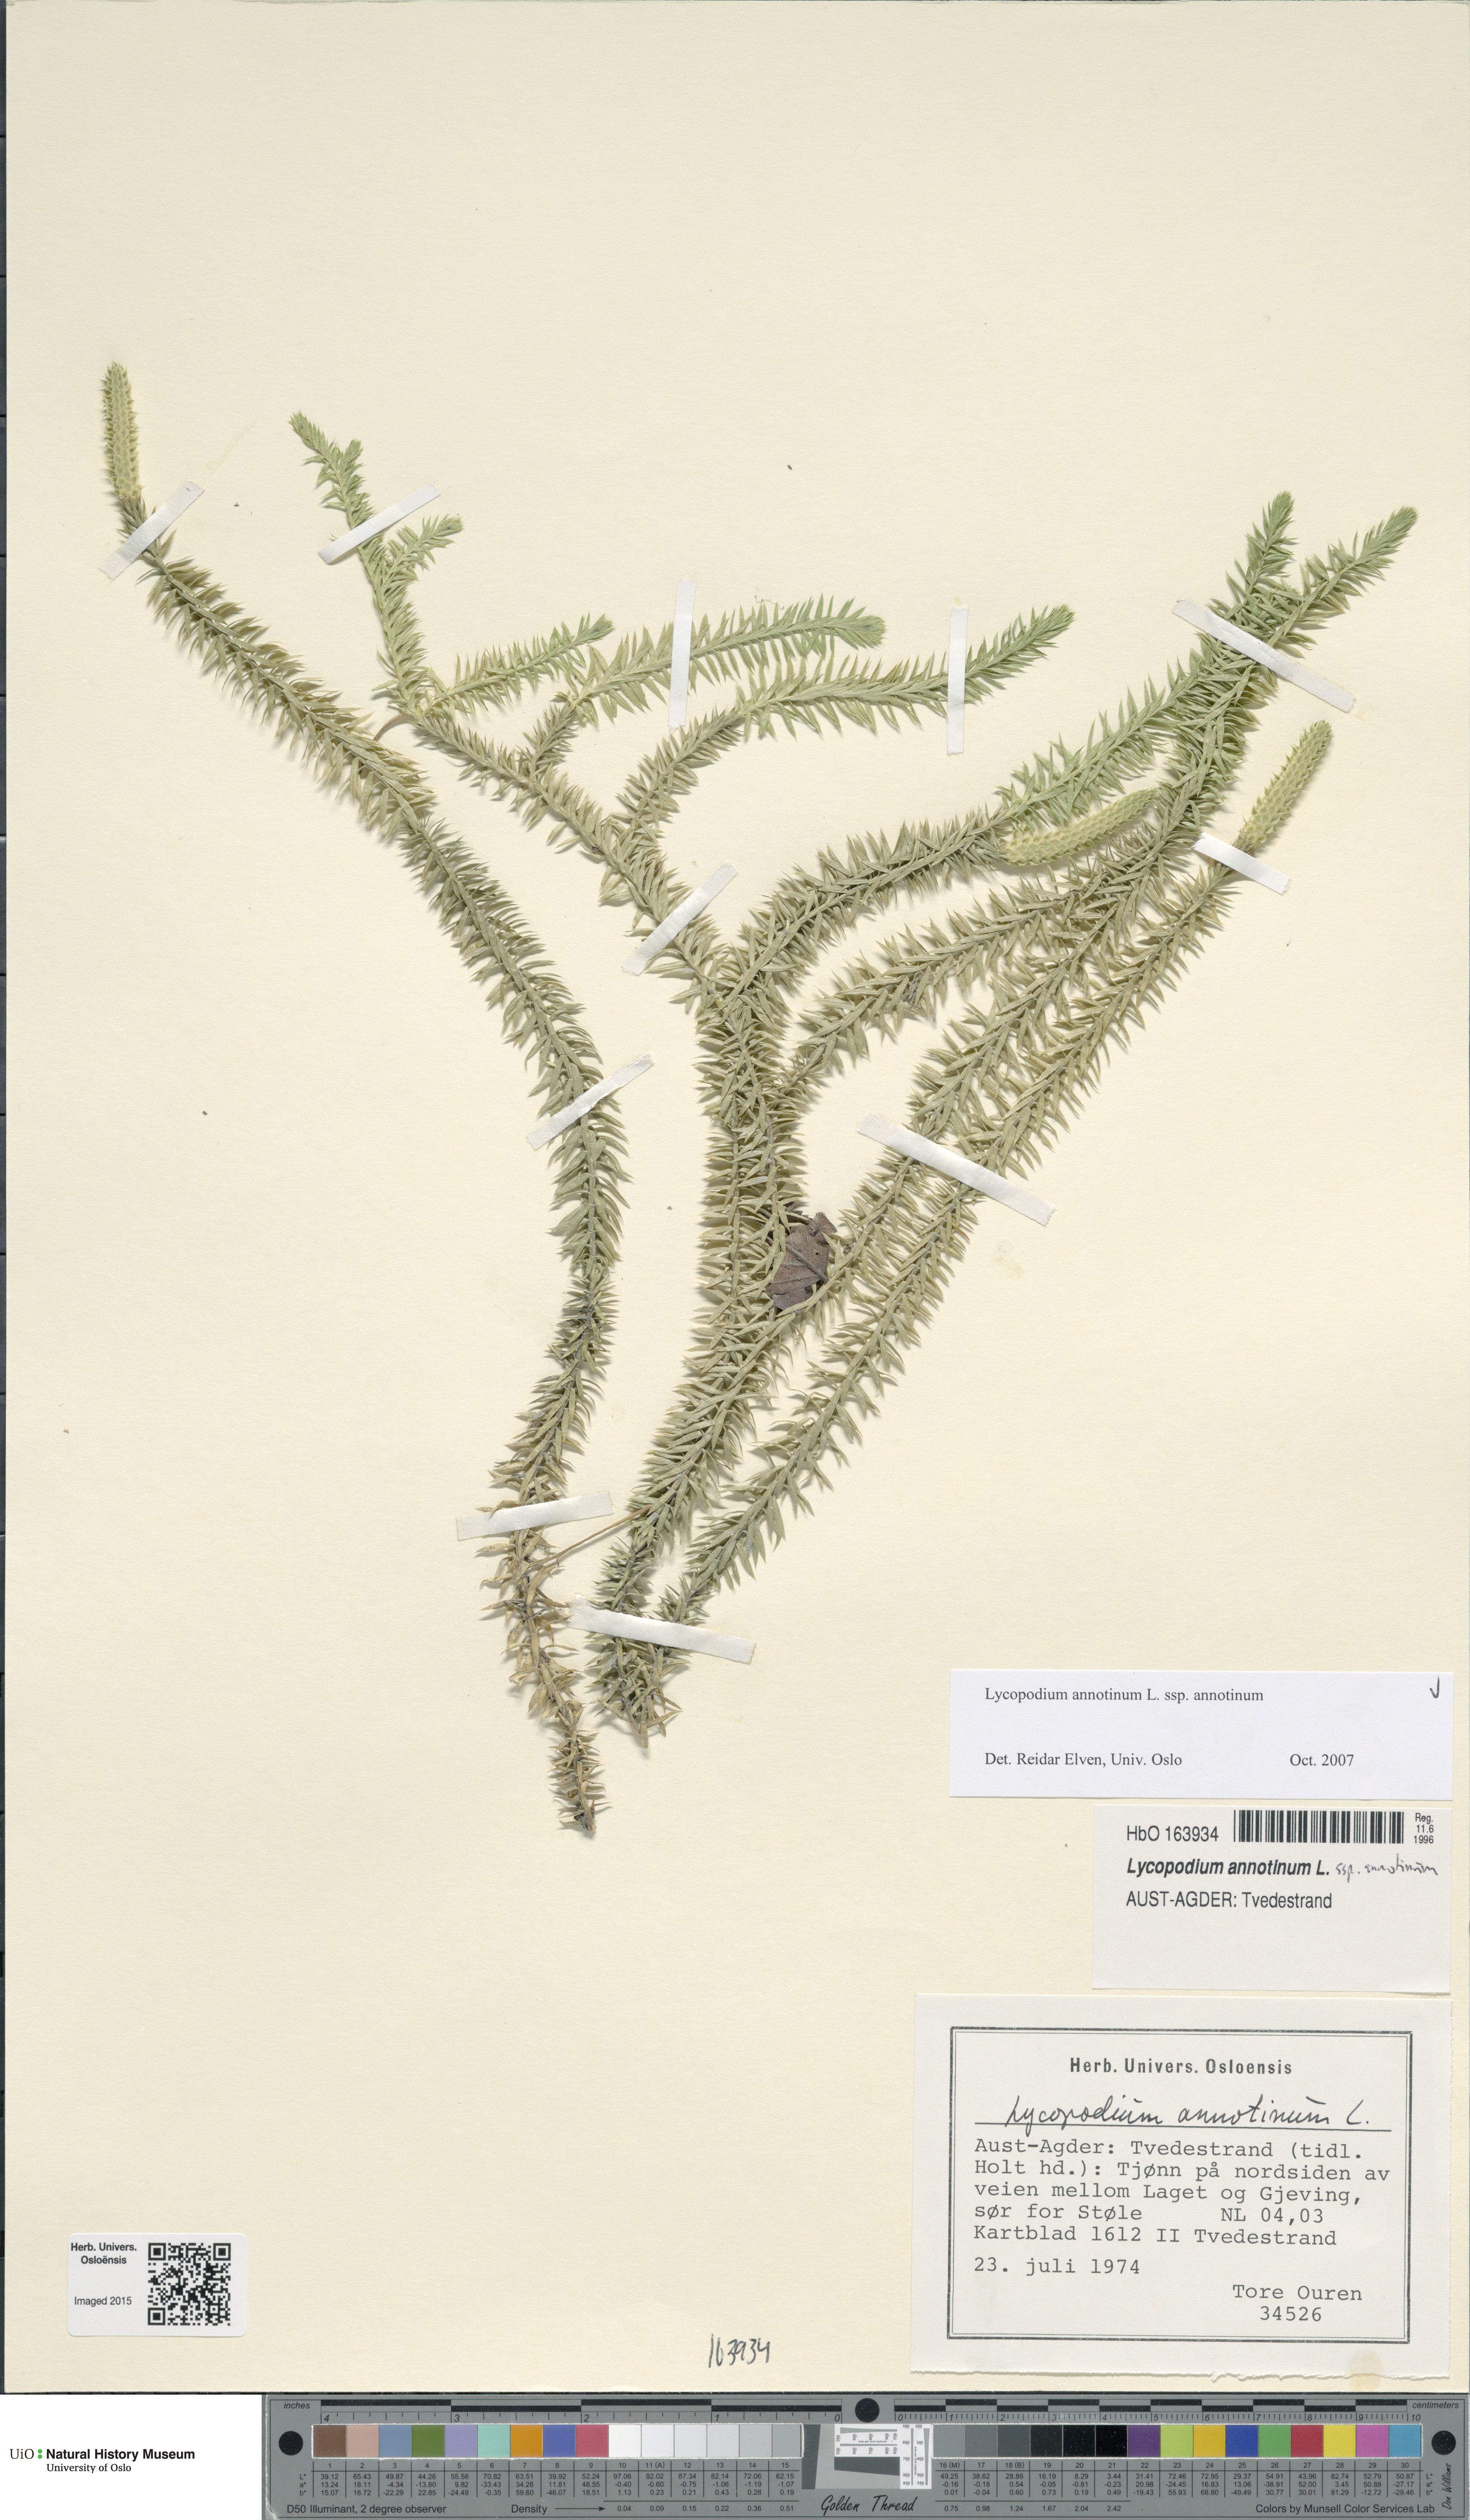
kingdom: Plantae
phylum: Tracheophyta
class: Lycopodiopsida
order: Lycopodiales
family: Lycopodiaceae
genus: Spinulum
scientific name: Spinulum annotinum
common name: Interrupted club-moss
